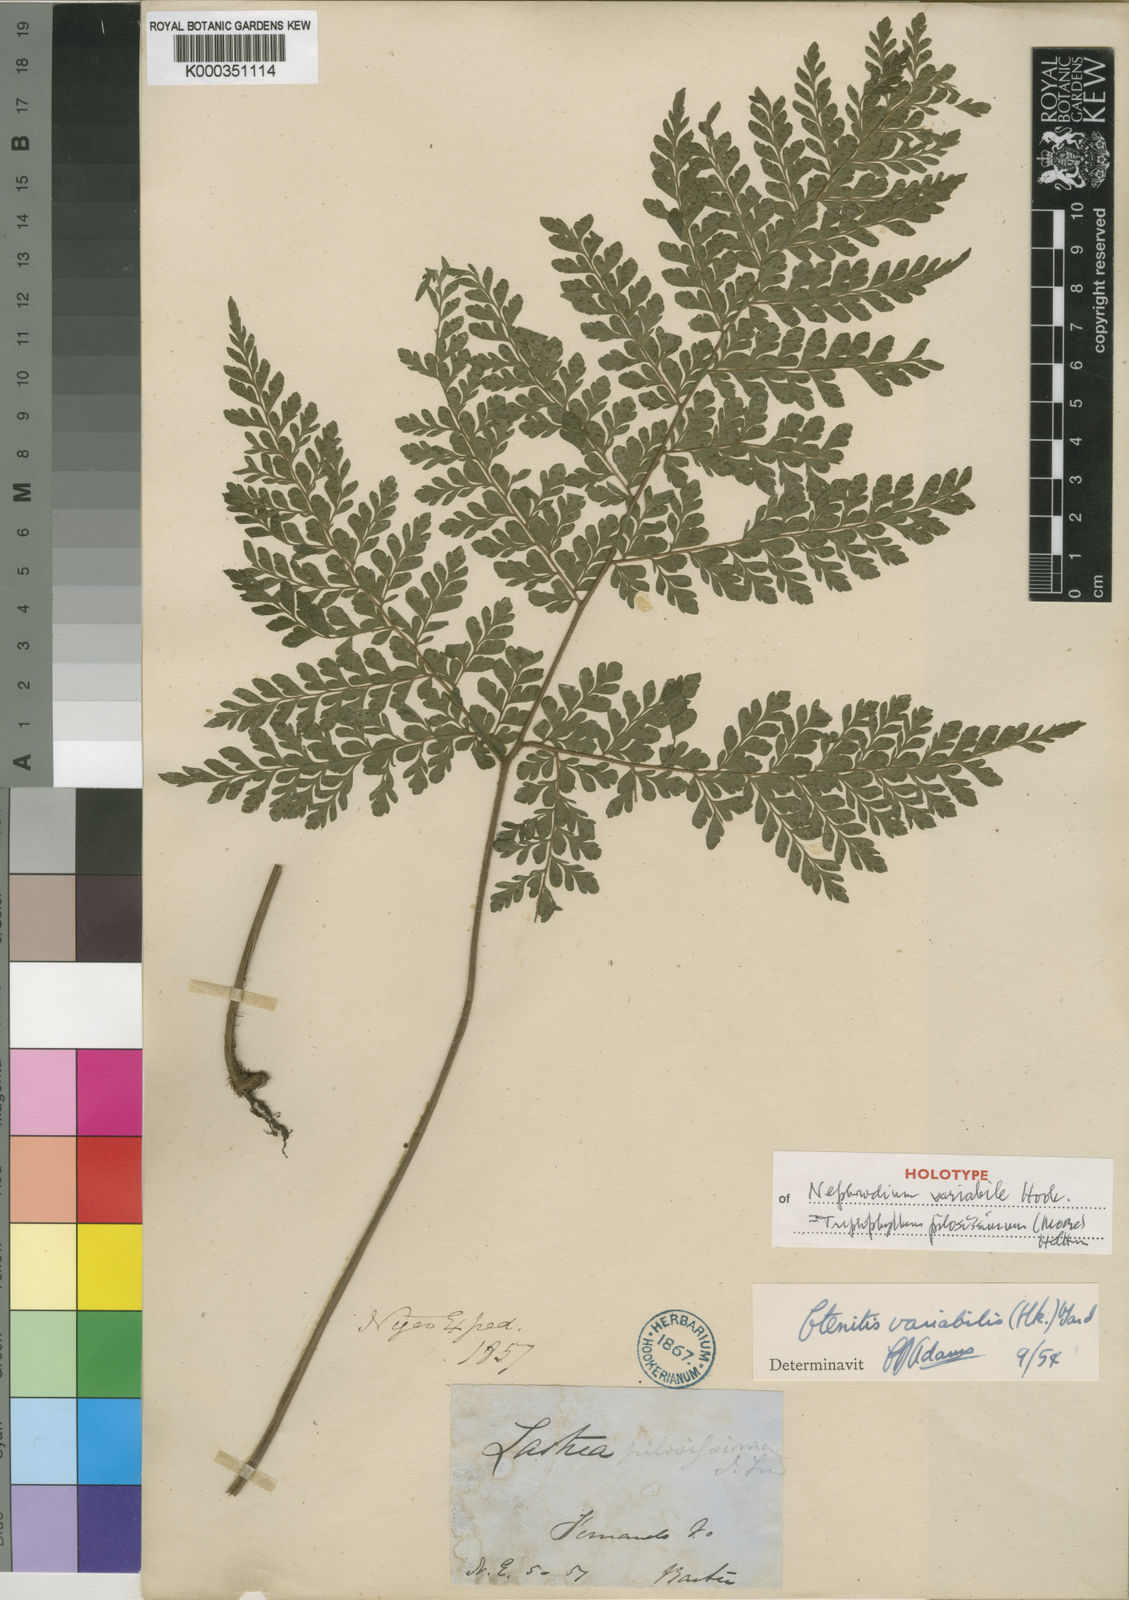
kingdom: Plantae
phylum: Tracheophyta
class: Polypodiopsida
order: Polypodiales
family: Tectariaceae
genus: Triplophyllum
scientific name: Triplophyllum pilosissimum
